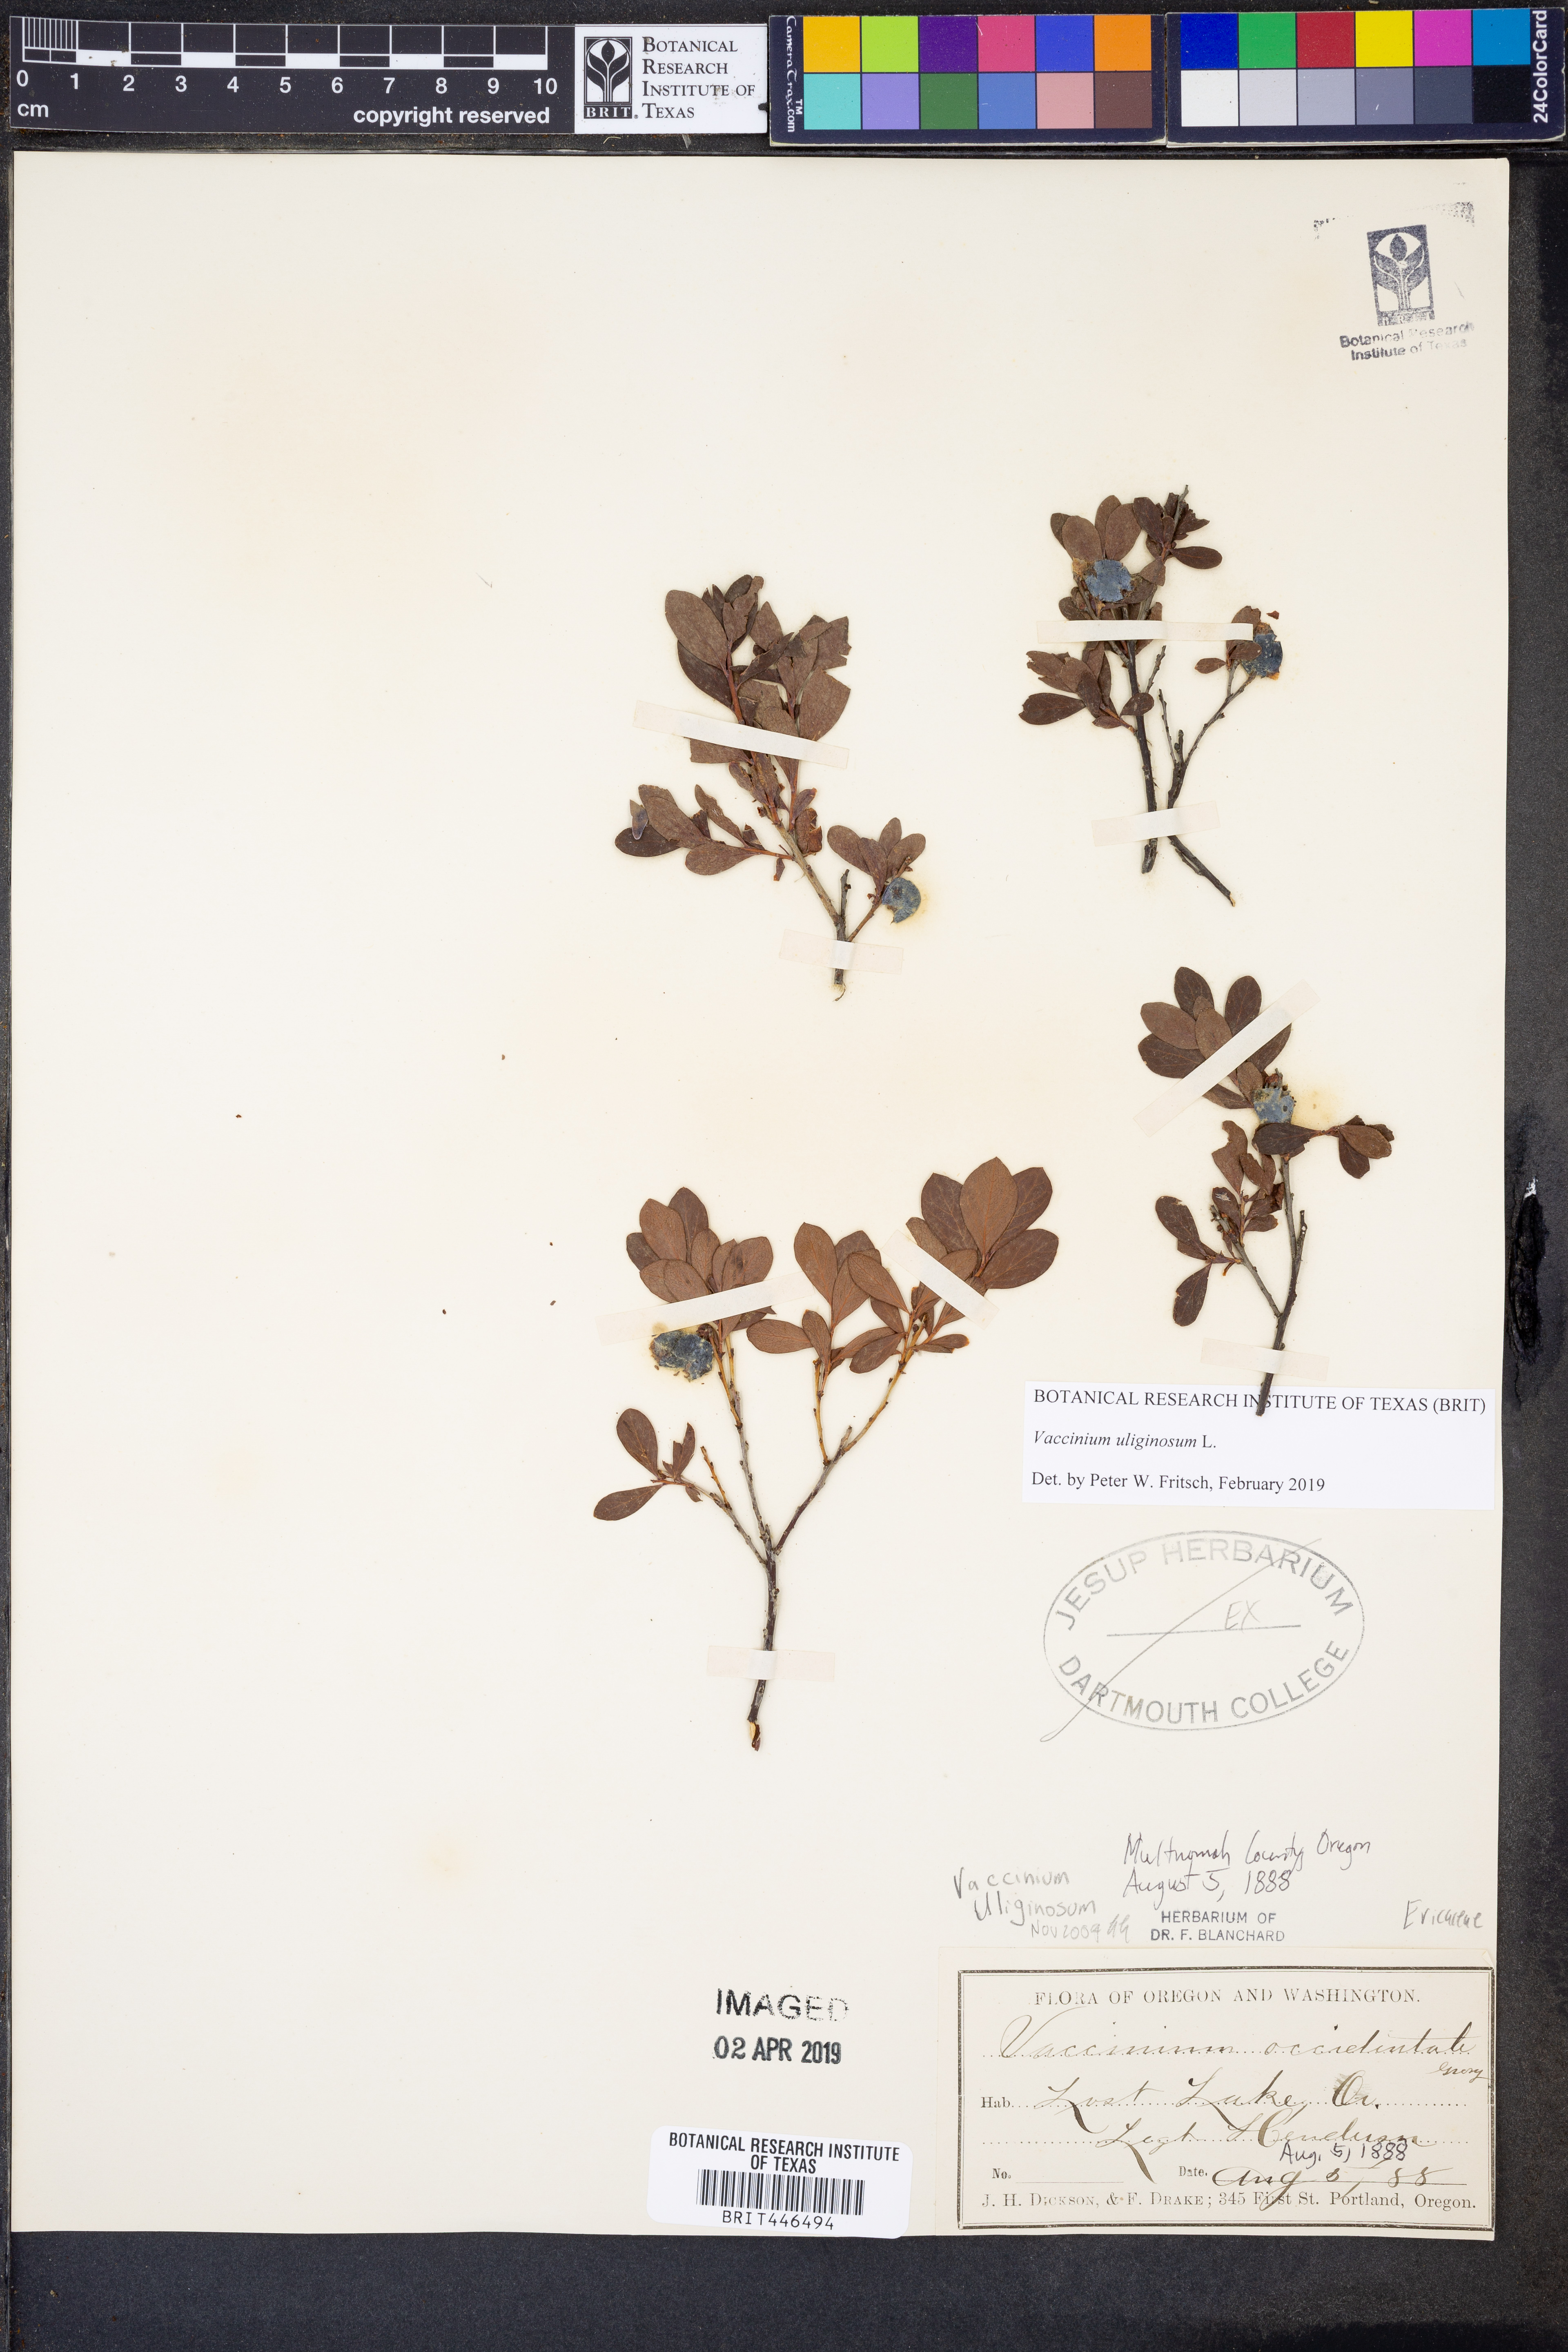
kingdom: Plantae
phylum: Tracheophyta
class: Magnoliopsida
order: Ericales
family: Ericaceae
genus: Vaccinium
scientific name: Vaccinium uliginosum
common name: Bog bilberry
